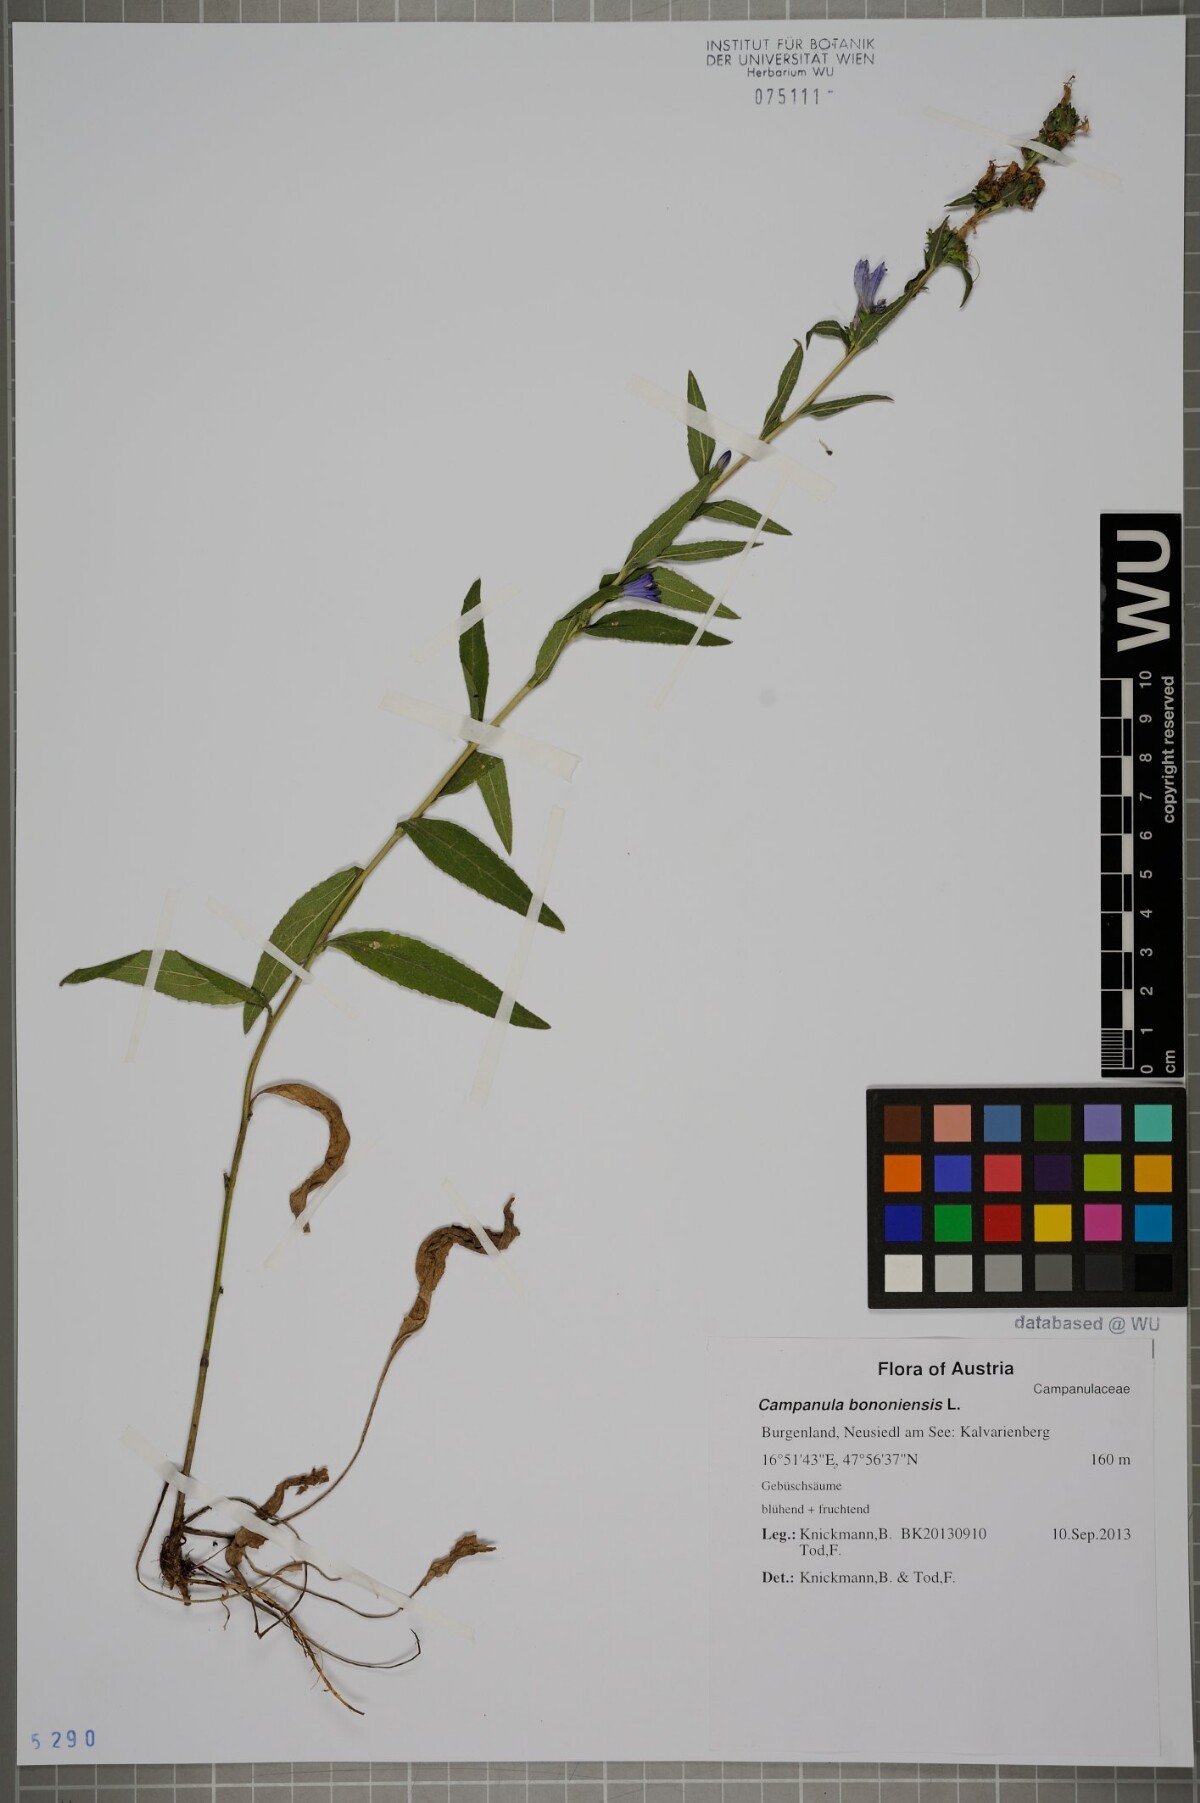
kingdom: Plantae
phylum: Tracheophyta
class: Magnoliopsida
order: Asterales
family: Campanulaceae
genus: Campanula
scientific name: Campanula bononiensis
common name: Pale bellflower
